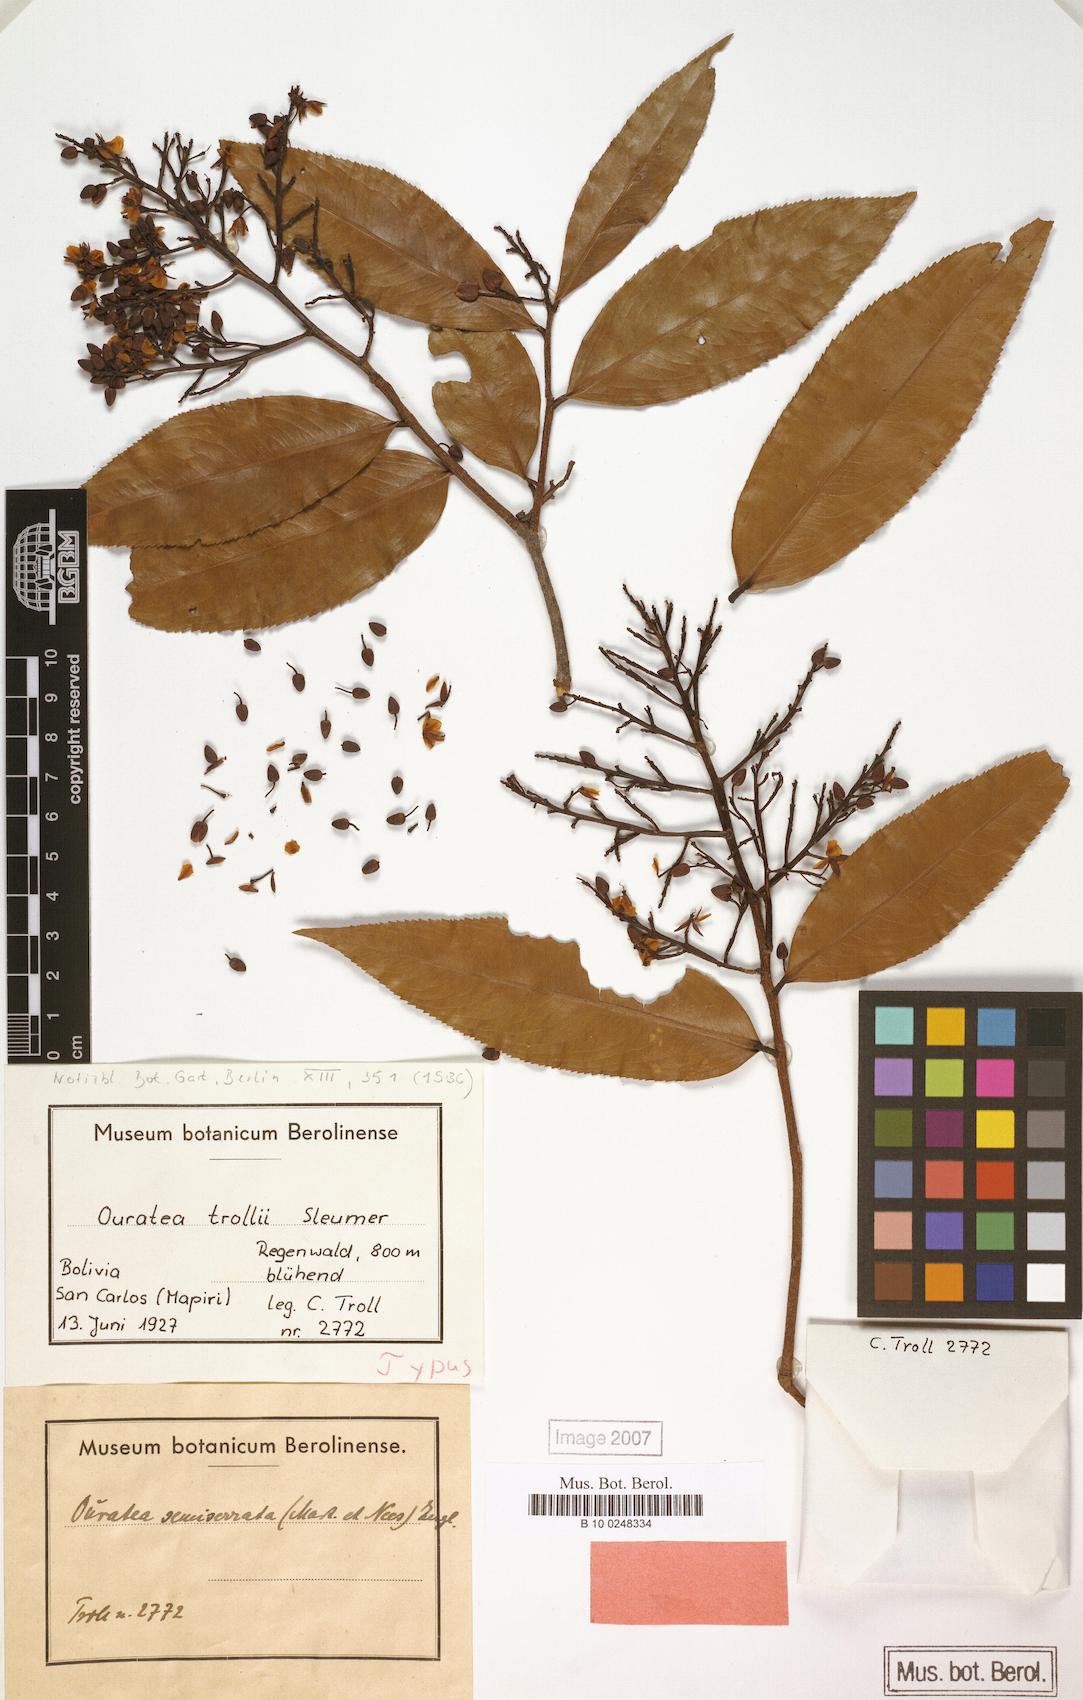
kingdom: Plantae
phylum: Tracheophyta
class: Magnoliopsida
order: Malpighiales
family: Ochnaceae
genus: Ouratea
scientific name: Ouratea trollii
